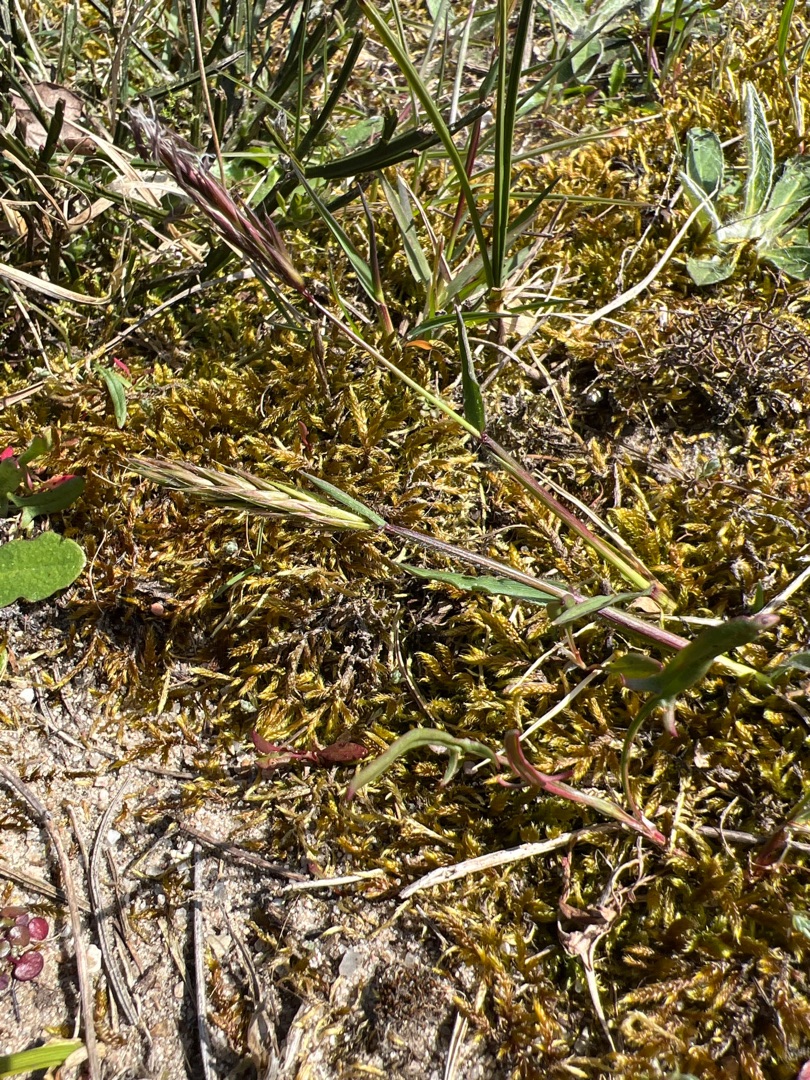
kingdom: Plantae
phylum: Tracheophyta
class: Liliopsida
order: Poales
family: Poaceae
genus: Anthoxanthum
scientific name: Anthoxanthum odoratum
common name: Vellugtende gulaks
